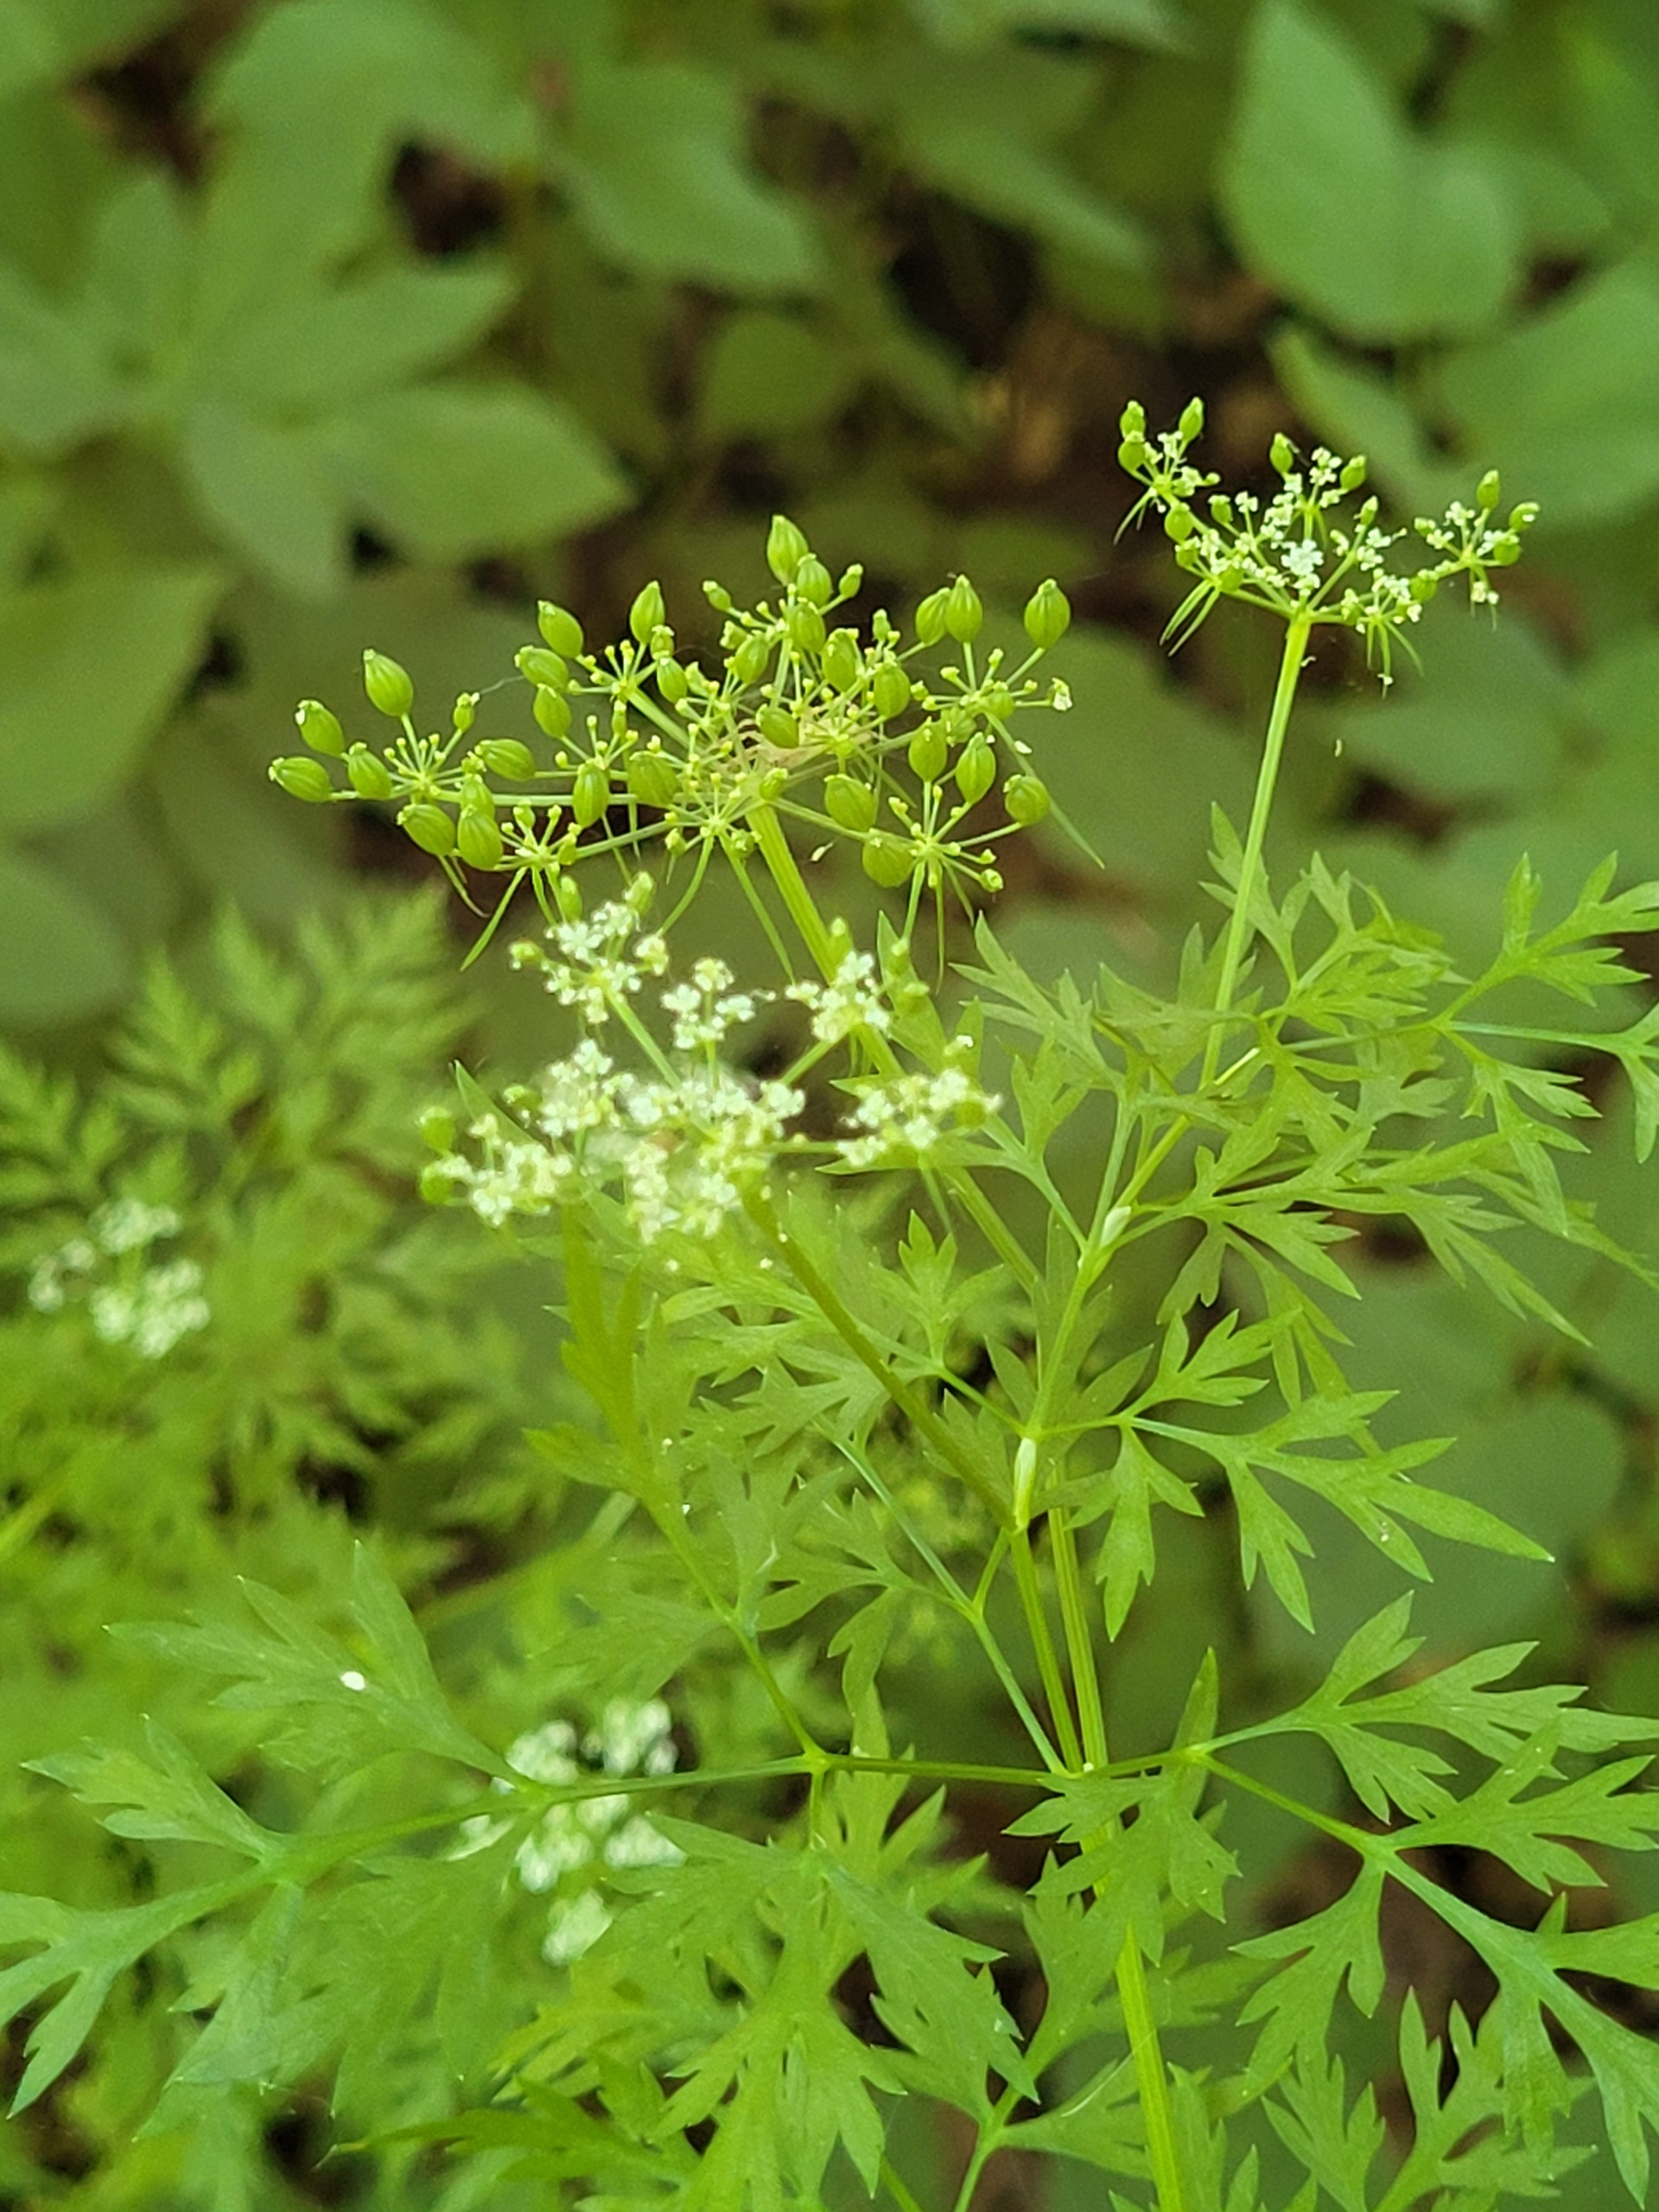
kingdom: Plantae
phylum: Tracheophyta
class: Magnoliopsida
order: Apiales
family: Apiaceae
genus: Aethusa
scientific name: Aethusa cynapium
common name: Hundepersille
